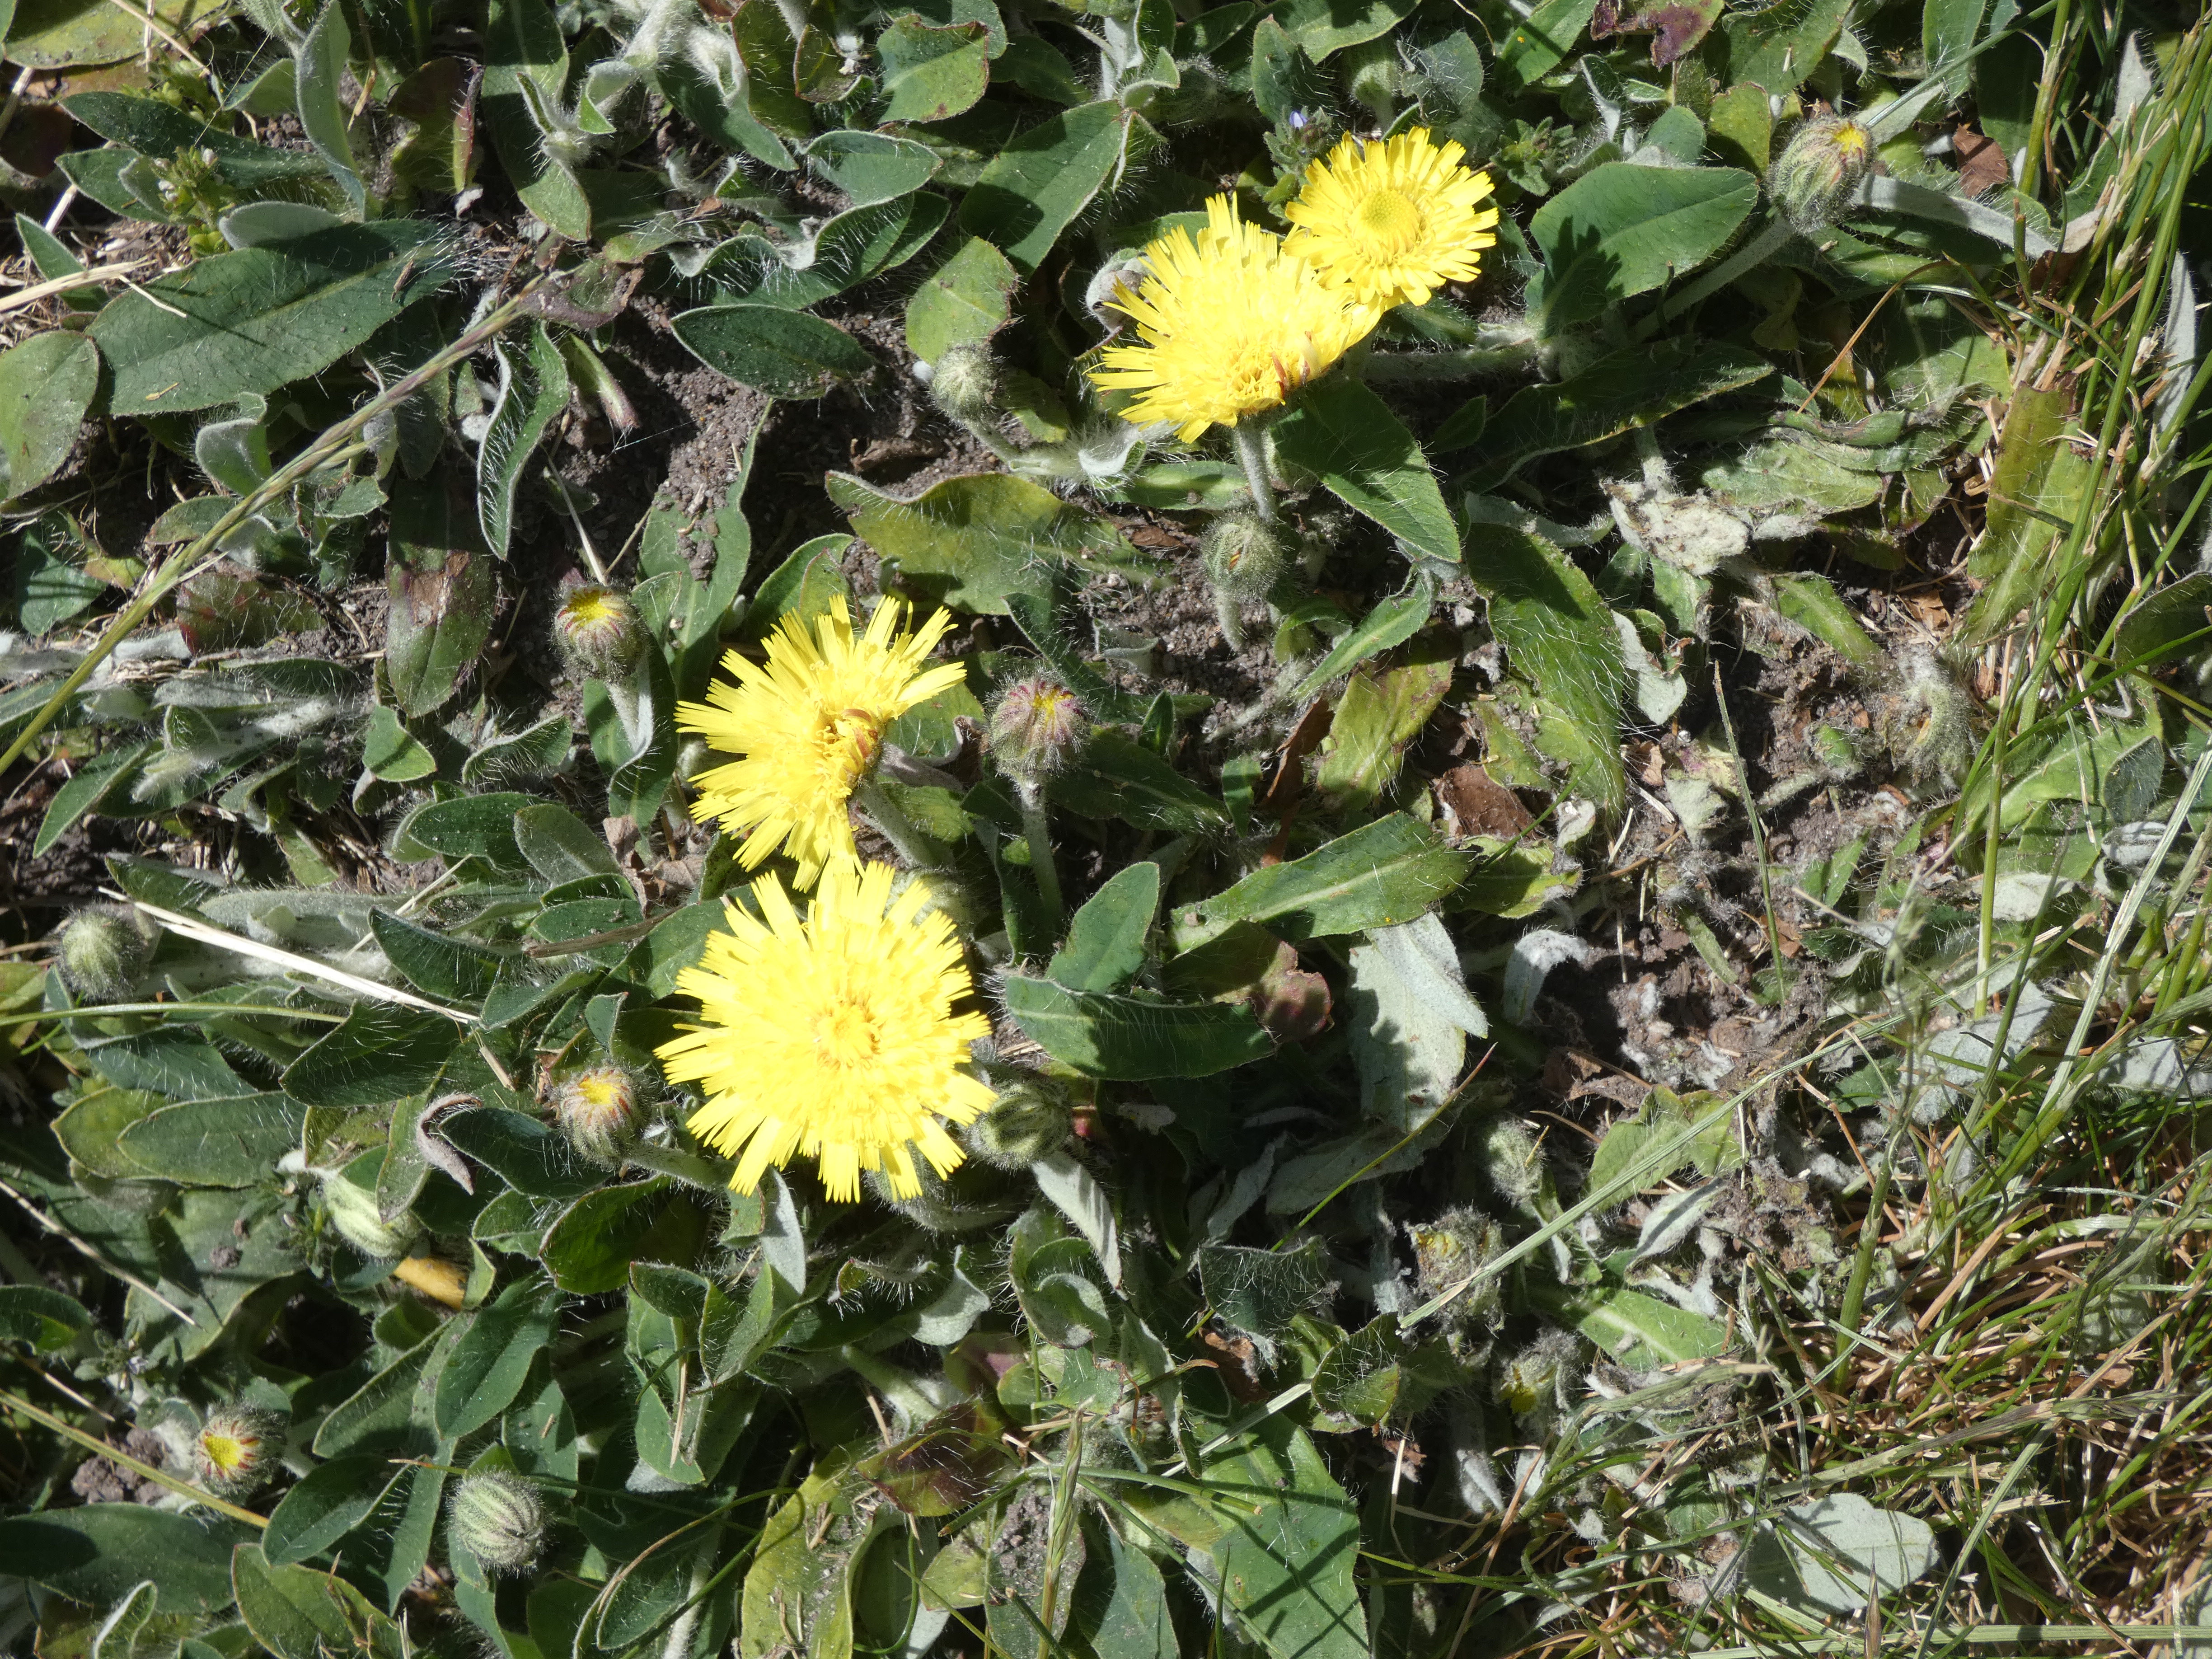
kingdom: Plantae
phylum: Tracheophyta
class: Magnoliopsida
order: Asterales
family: Asteraceae
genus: Pilosella
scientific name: Pilosella officinarum
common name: Håret høgeurt
